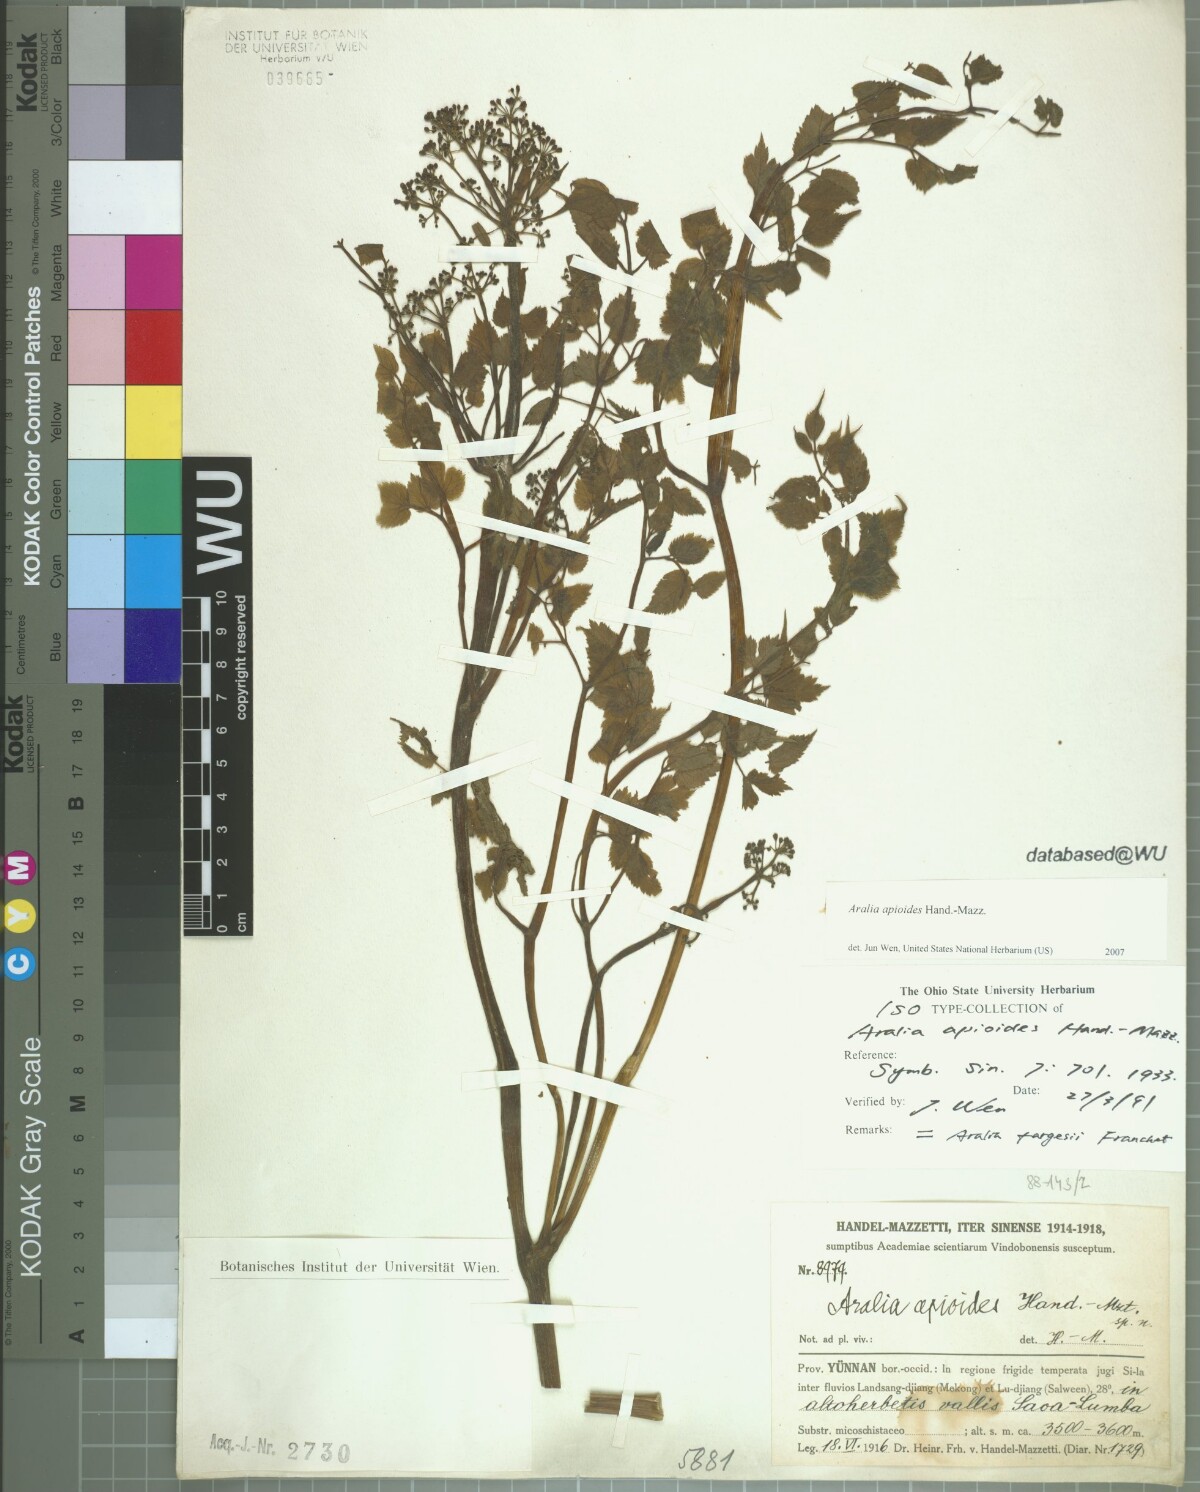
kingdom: Plantae
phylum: Tracheophyta
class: Magnoliopsida
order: Apiales
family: Araliaceae
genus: Aralia
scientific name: Aralia apioides
